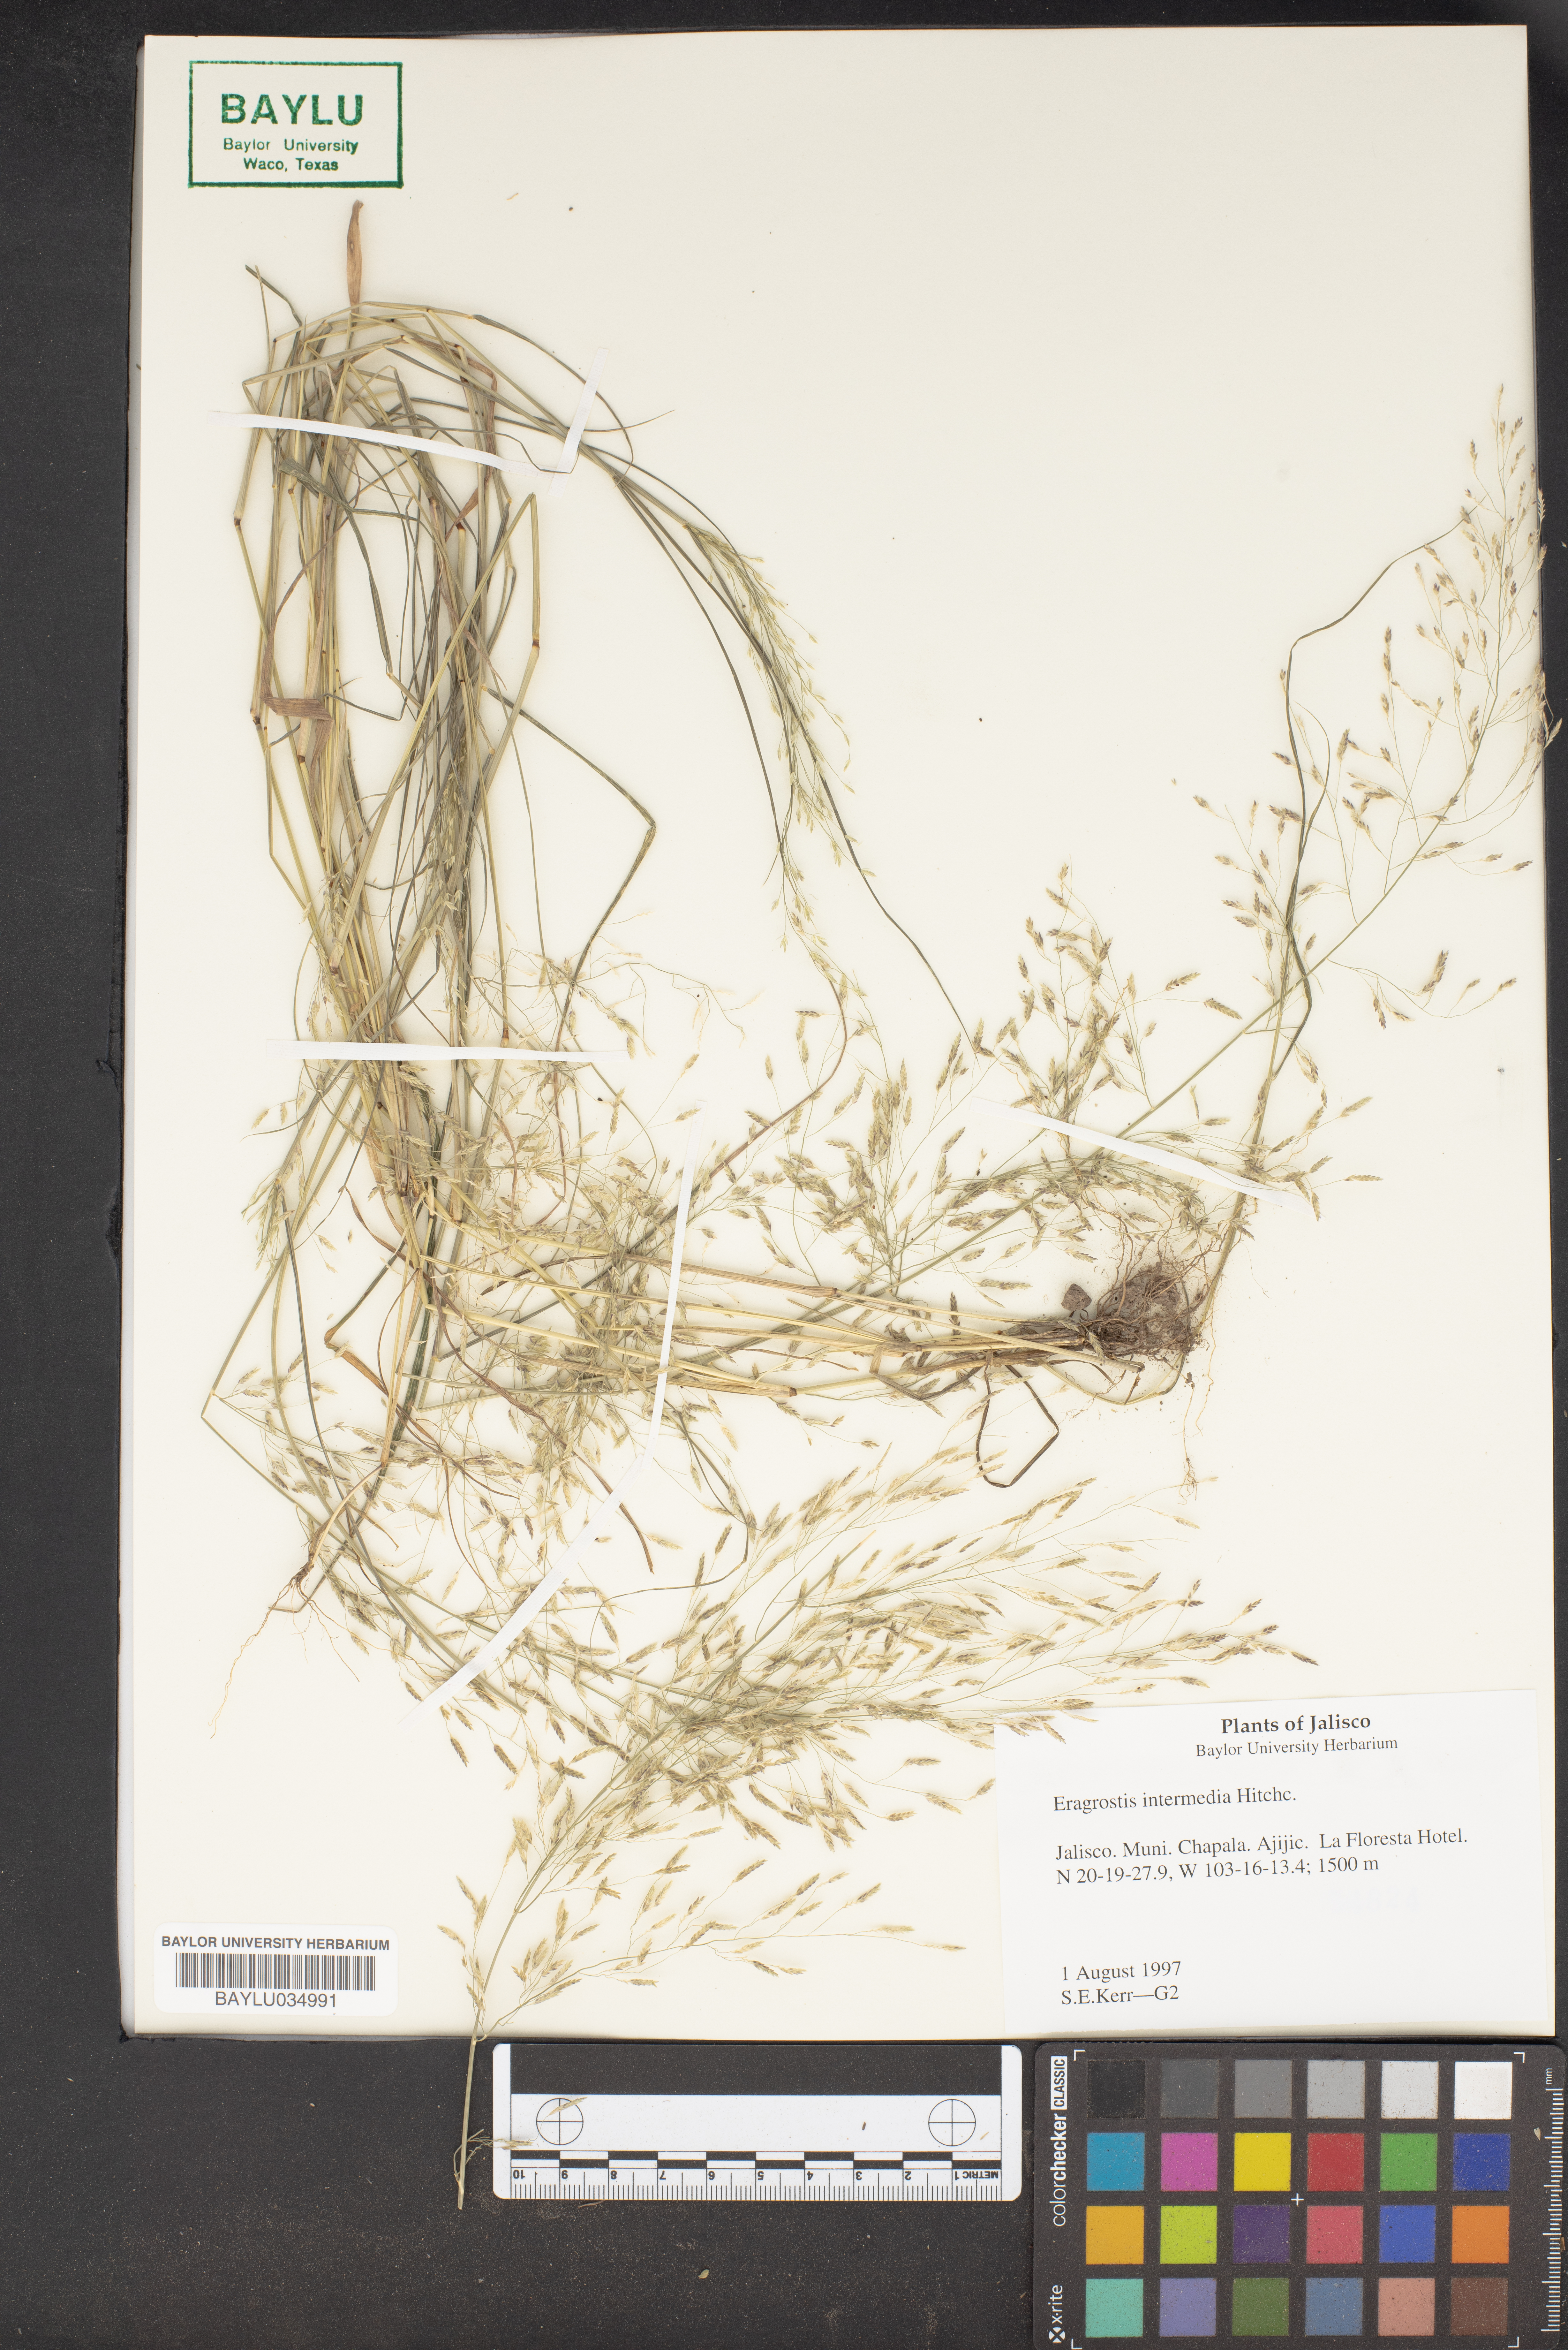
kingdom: Plantae
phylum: Tracheophyta
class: Liliopsida
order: Poales
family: Poaceae
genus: Eragrostis
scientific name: Eragrostis intermedia
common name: Plains love grass
